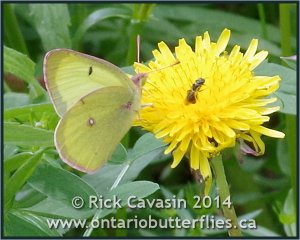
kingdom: Animalia
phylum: Arthropoda
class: Insecta
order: Lepidoptera
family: Pieridae
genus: Colias
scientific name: Colias philodice
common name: Clouded Sulphur
